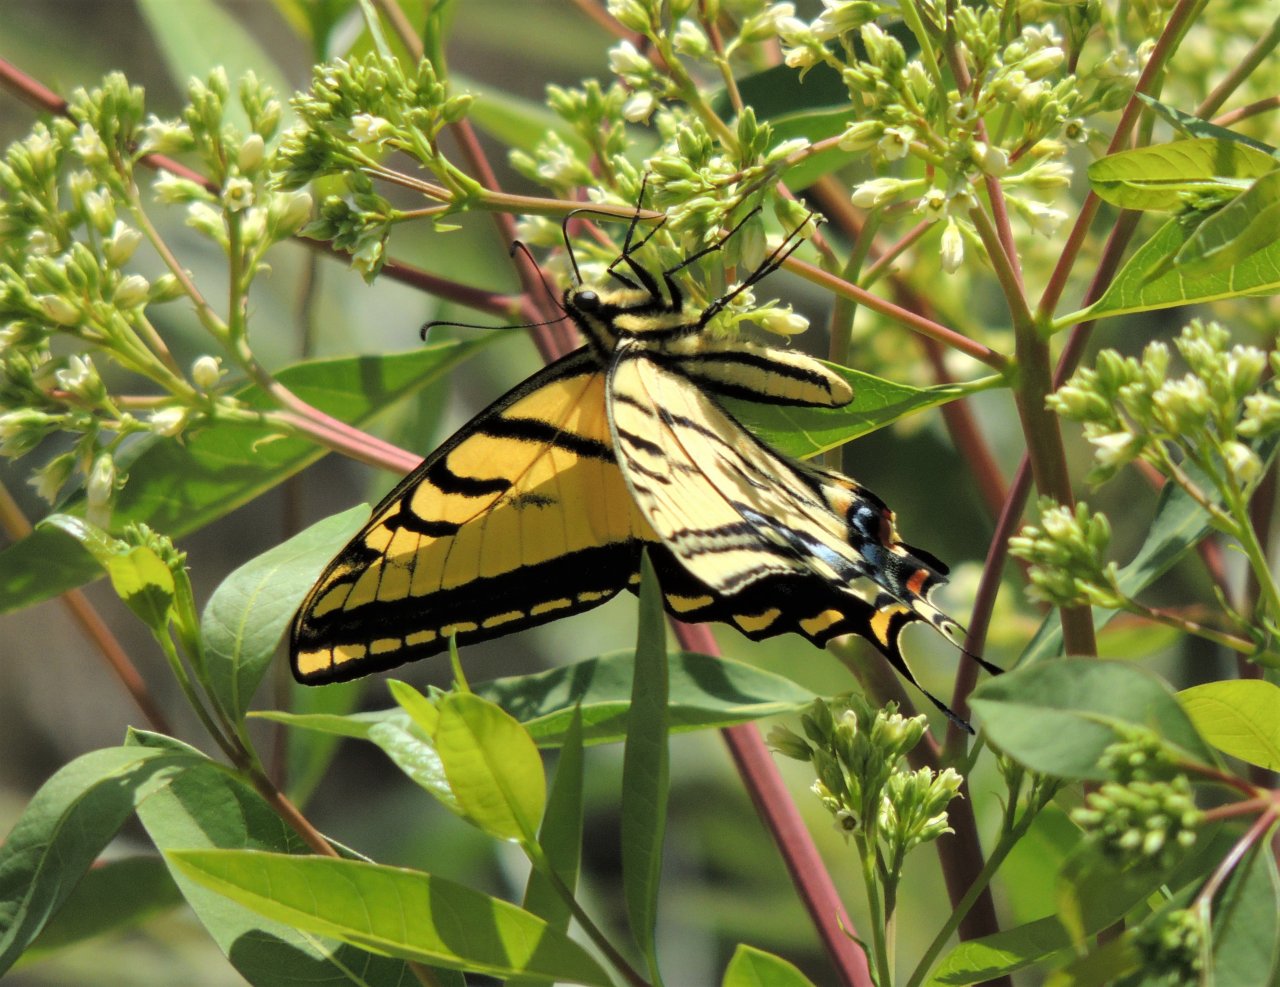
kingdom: Animalia
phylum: Arthropoda
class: Insecta
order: Lepidoptera
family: Papilionidae
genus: Papilio
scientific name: Papilio multicaudata
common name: Two-tailed Swallowtail
